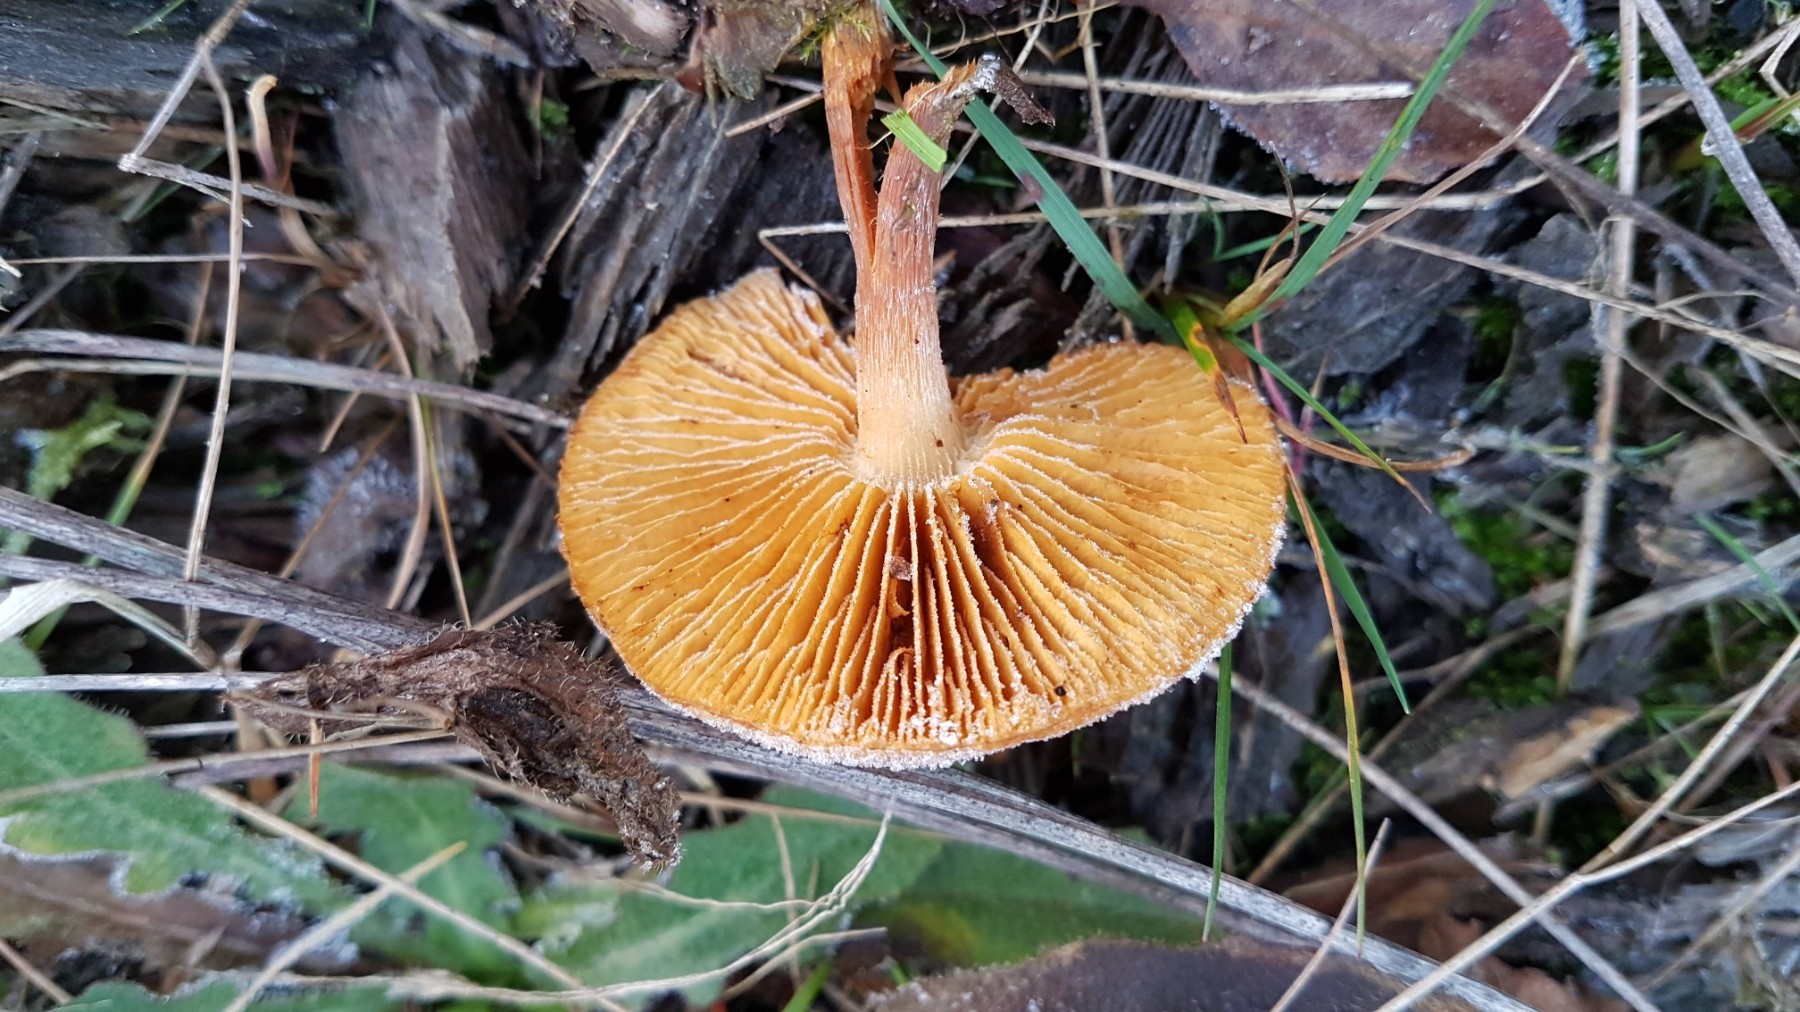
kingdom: Fungi
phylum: Basidiomycota
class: Agaricomycetes
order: Agaricales
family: Hymenogastraceae
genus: Gymnopilus
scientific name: Gymnopilus penetrans
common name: plettet flammehat
